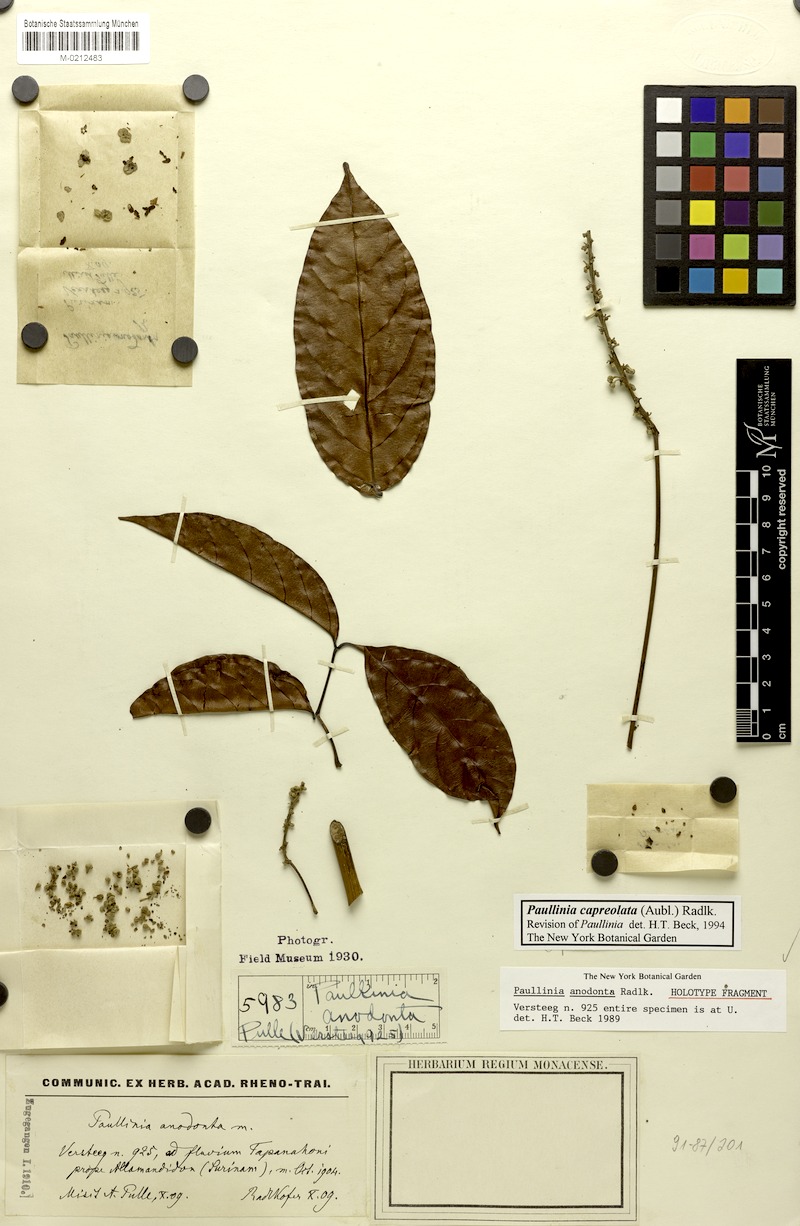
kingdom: Plantae
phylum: Tracheophyta
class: Magnoliopsida
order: Sapindales
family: Sapindaceae
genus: Paullinia
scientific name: Paullinia capreolata
